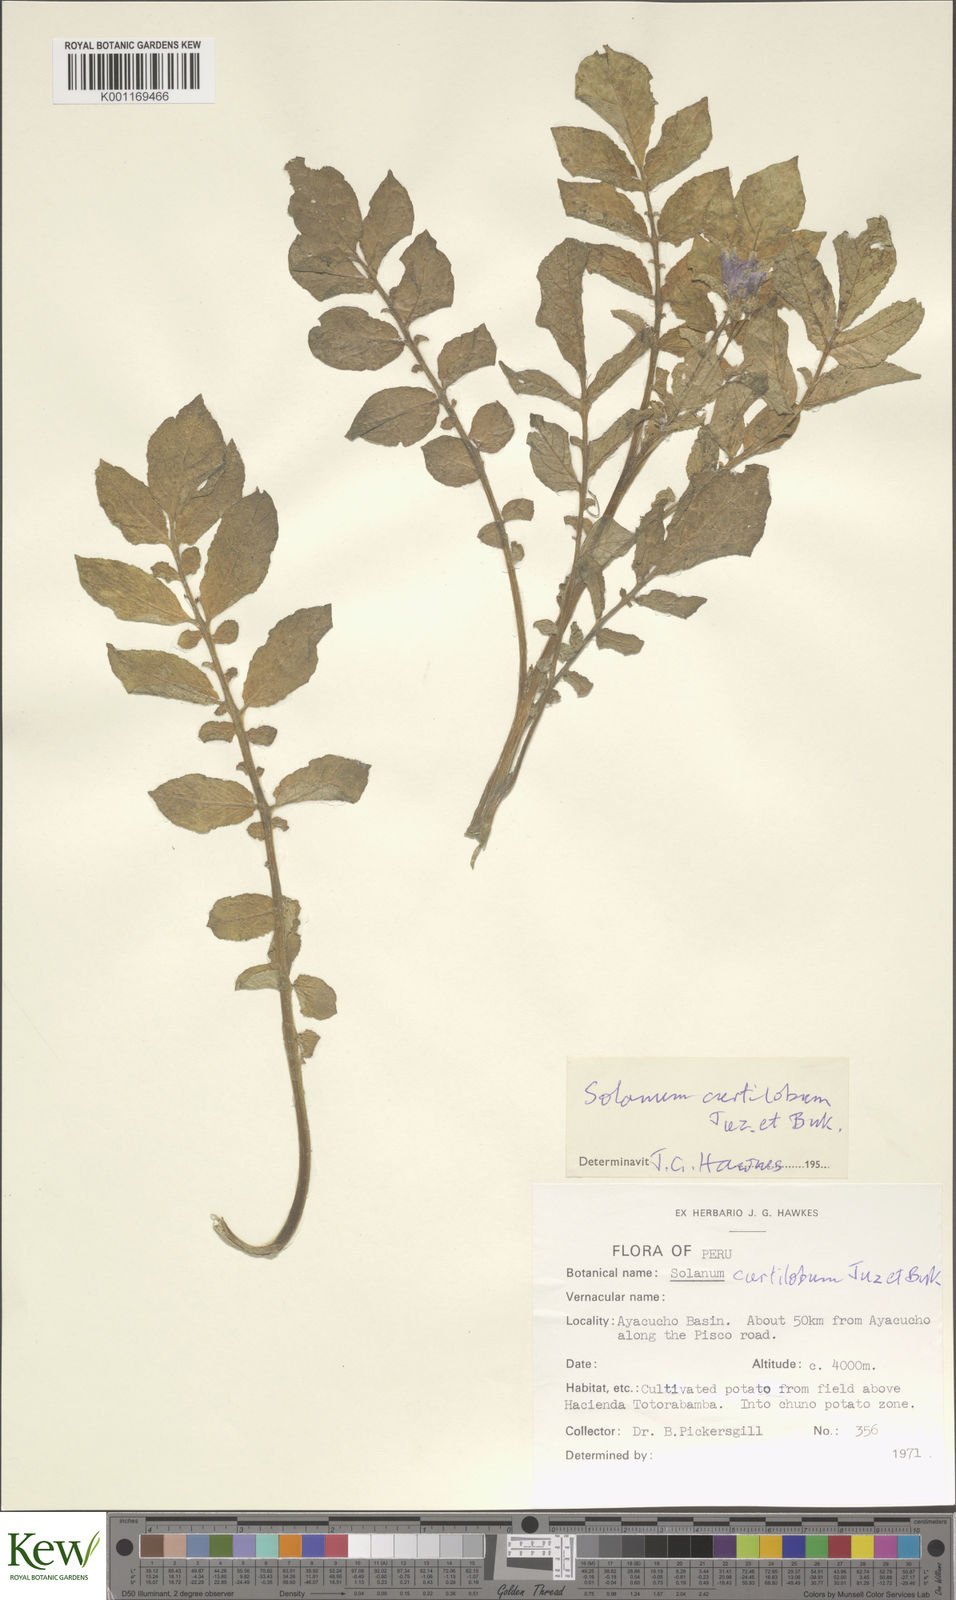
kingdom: Plantae
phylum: Tracheophyta
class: Magnoliopsida
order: Solanales
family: Solanaceae
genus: Solanum
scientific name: Solanum curtilobum
